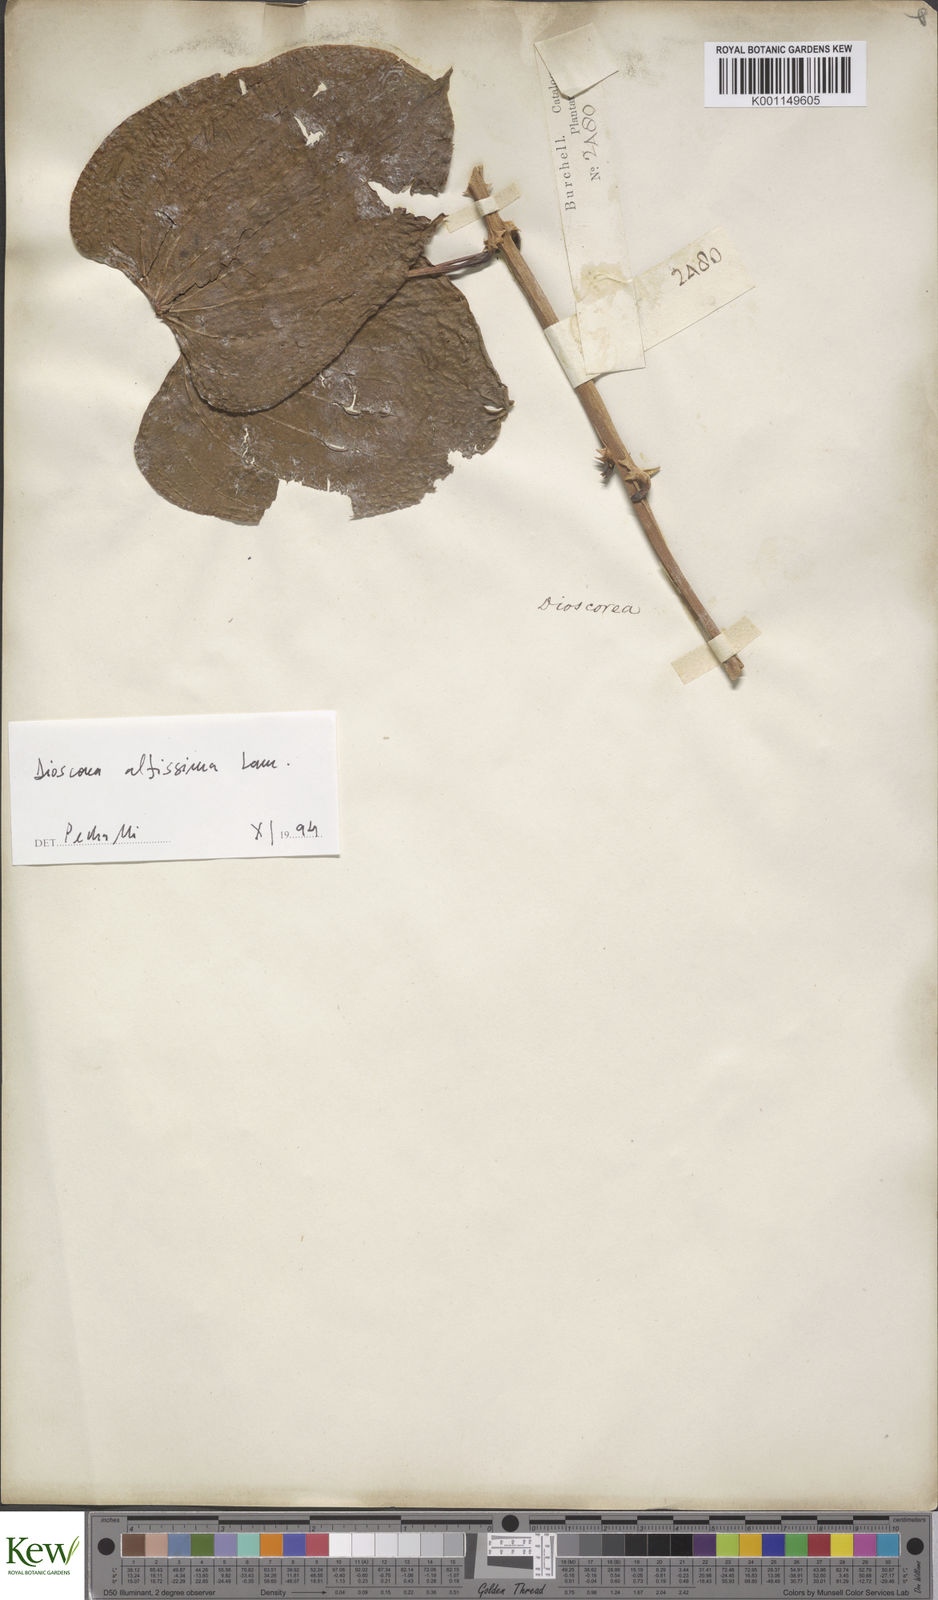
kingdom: Plantae
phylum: Tracheophyta
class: Liliopsida
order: Dioscoreales
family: Dioscoreaceae
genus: Dioscorea
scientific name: Dioscorea chondrocarpa
